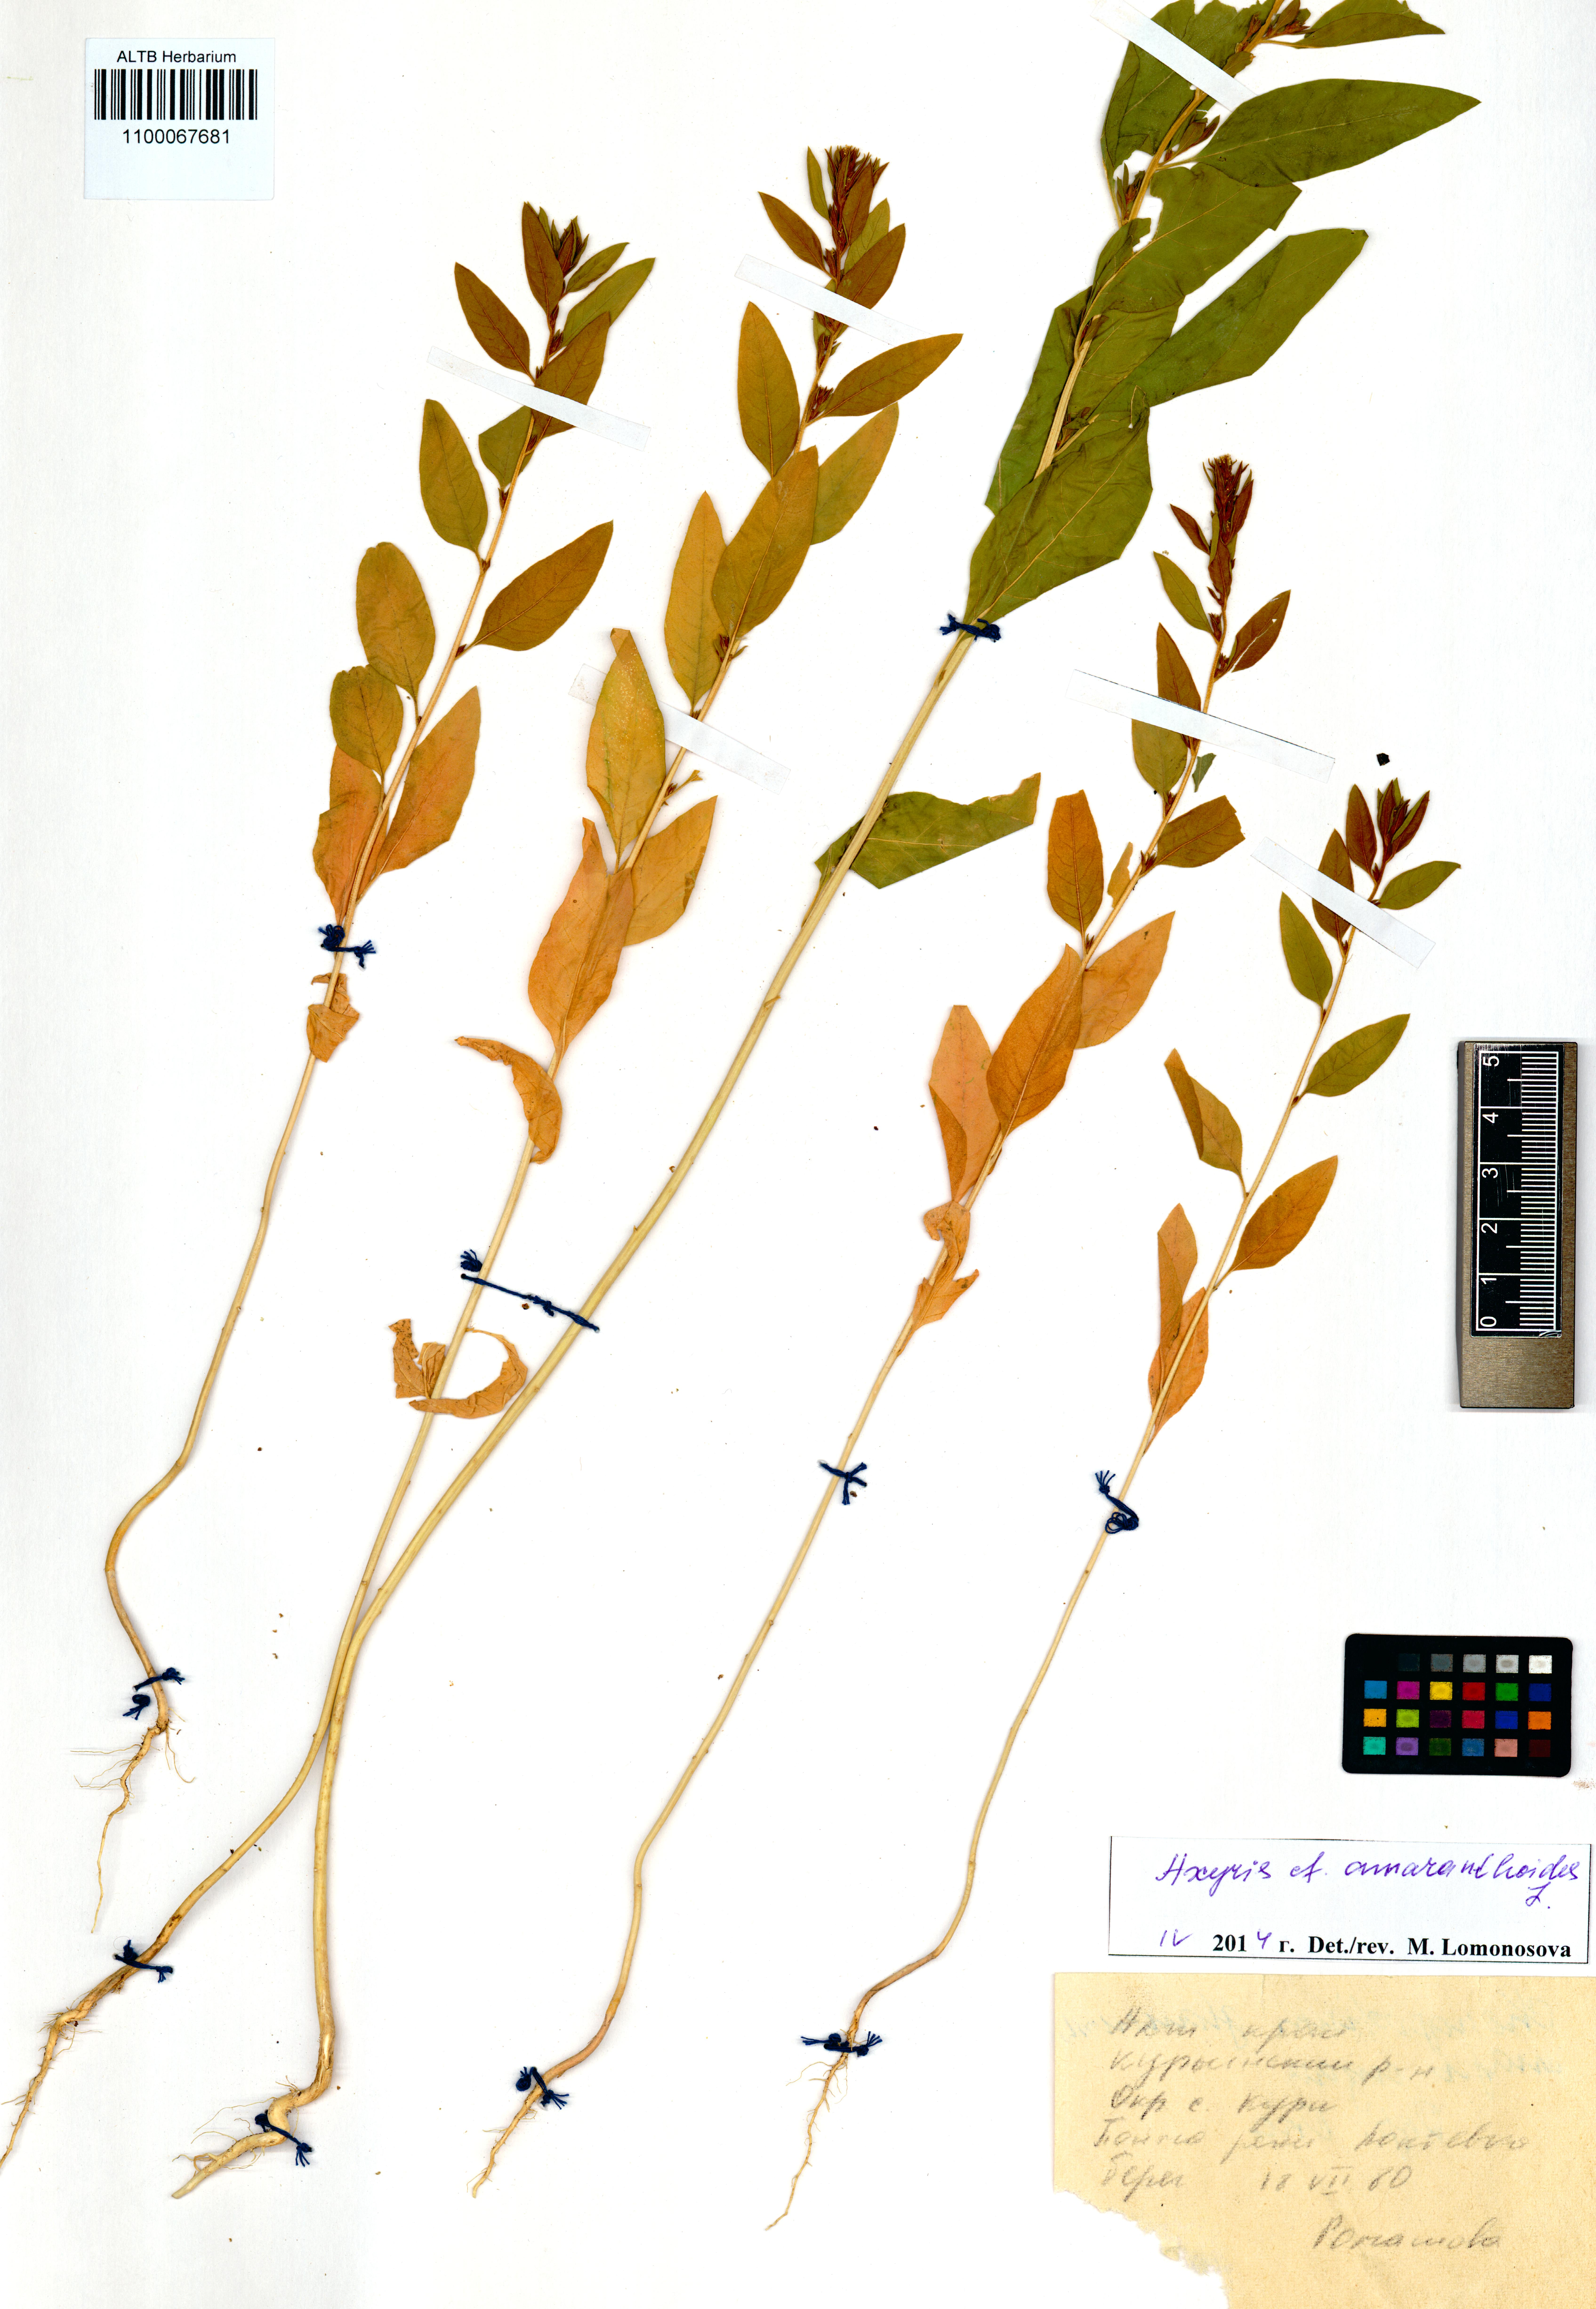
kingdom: Plantae
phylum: Tracheophyta
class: Magnoliopsida
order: Caryophyllales
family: Amaranthaceae
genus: Axyris
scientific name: Axyris amaranthoides
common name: Russian pigweed
